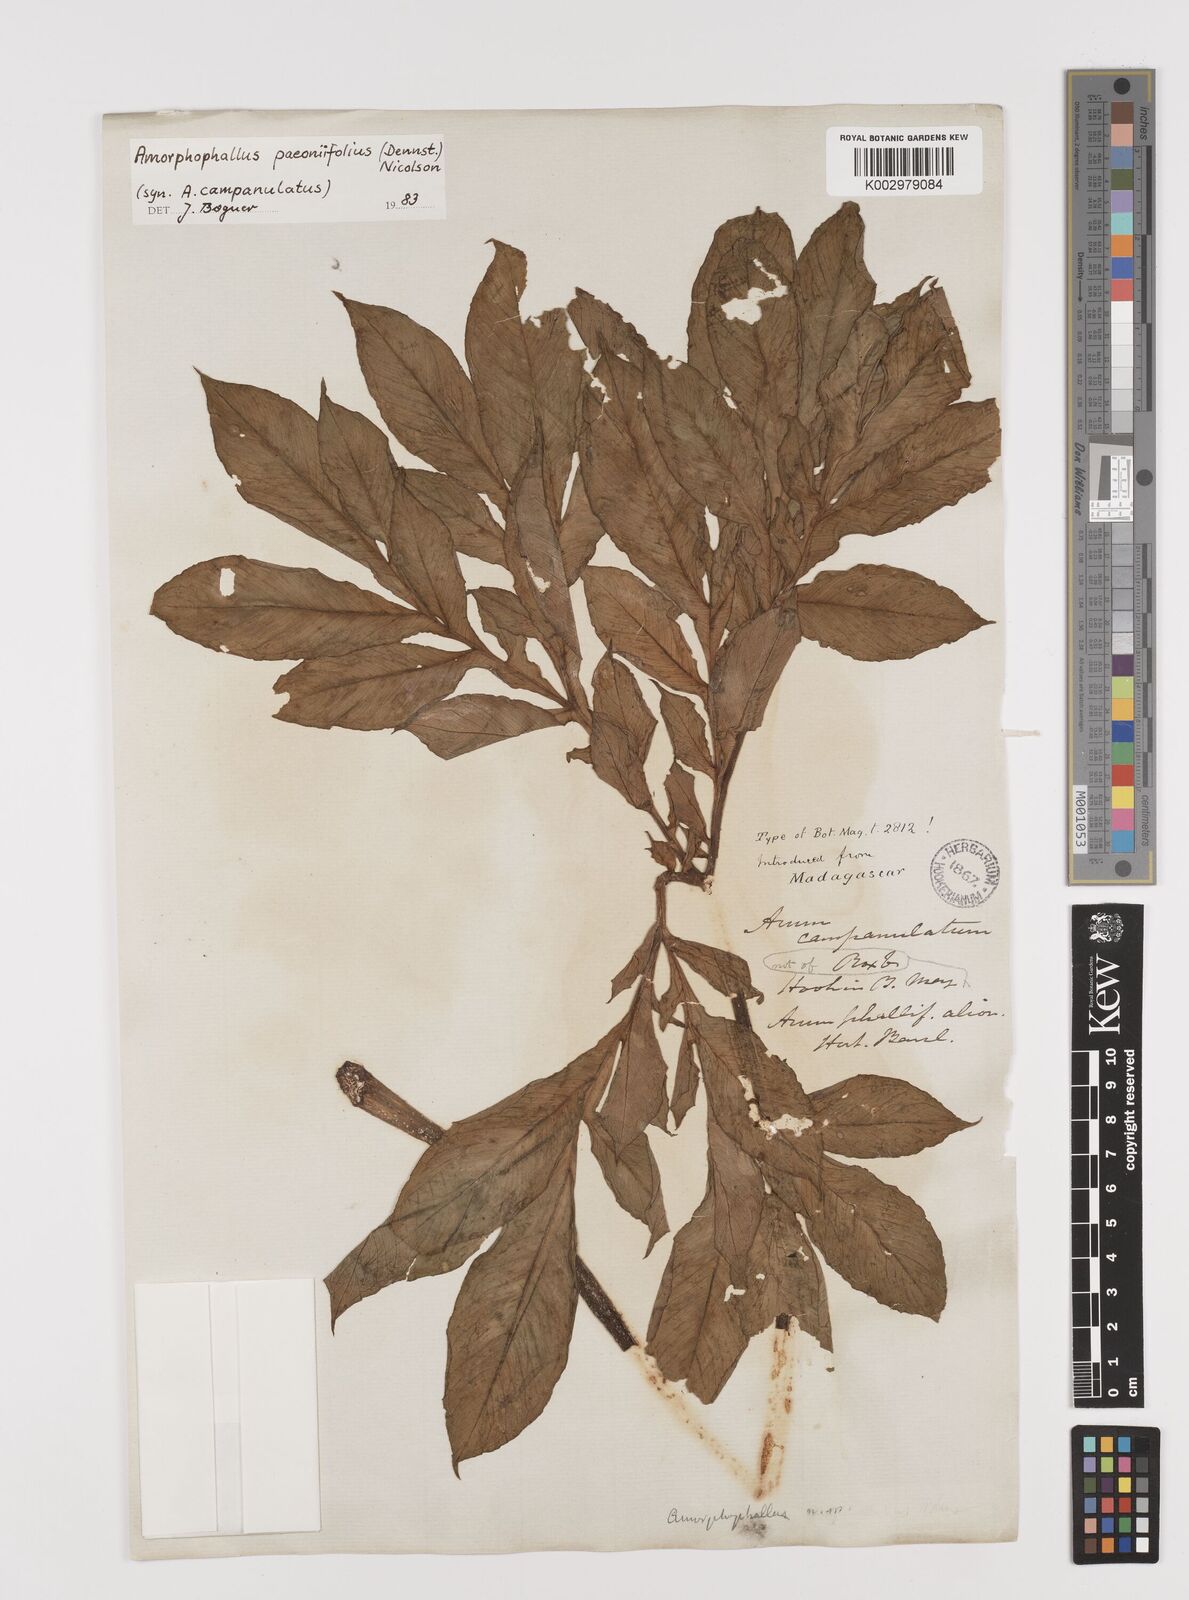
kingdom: Plantae
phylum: Tracheophyta
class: Liliopsida
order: Alismatales
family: Araceae
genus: Amorphophallus
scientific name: Amorphophallus paeoniifolius
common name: Telinga-potato
